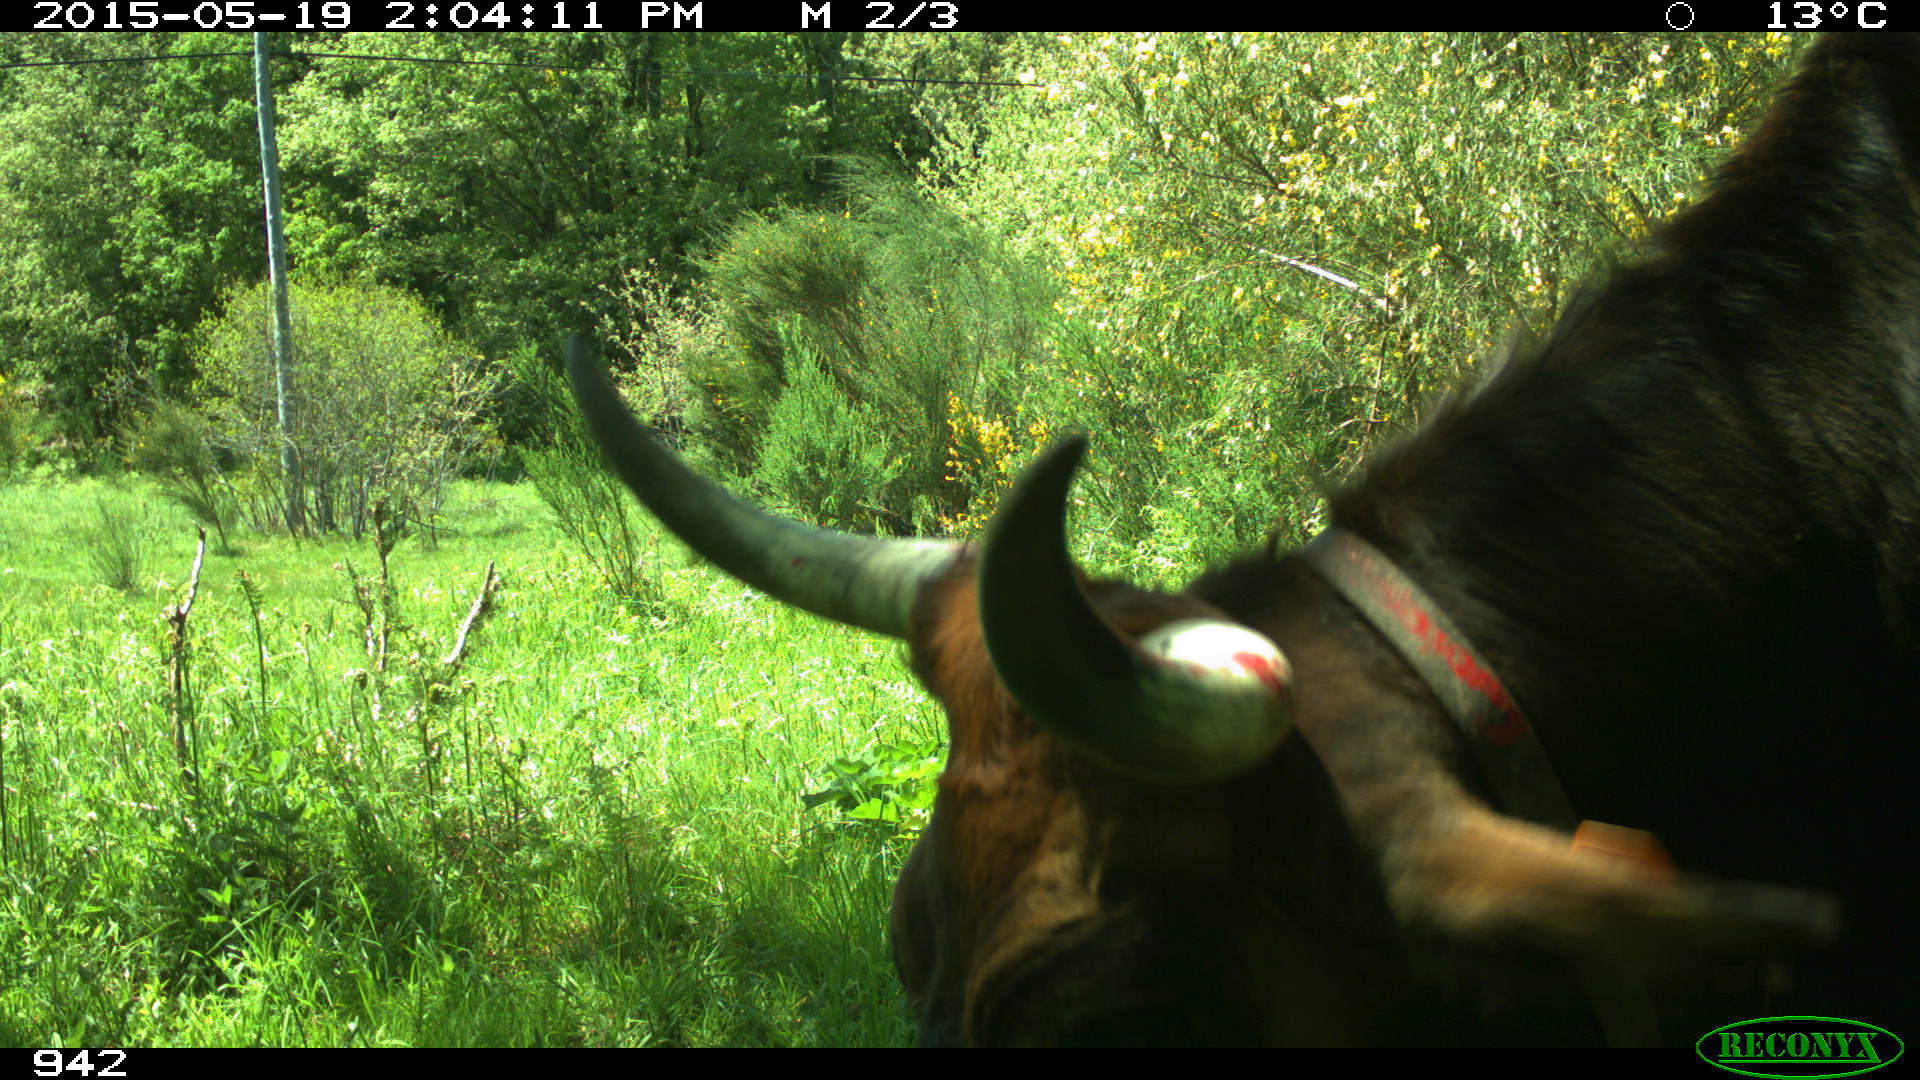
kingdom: Animalia
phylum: Chordata
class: Mammalia
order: Artiodactyla
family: Bovidae
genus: Bos
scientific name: Bos taurus
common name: Domesticated cattle
